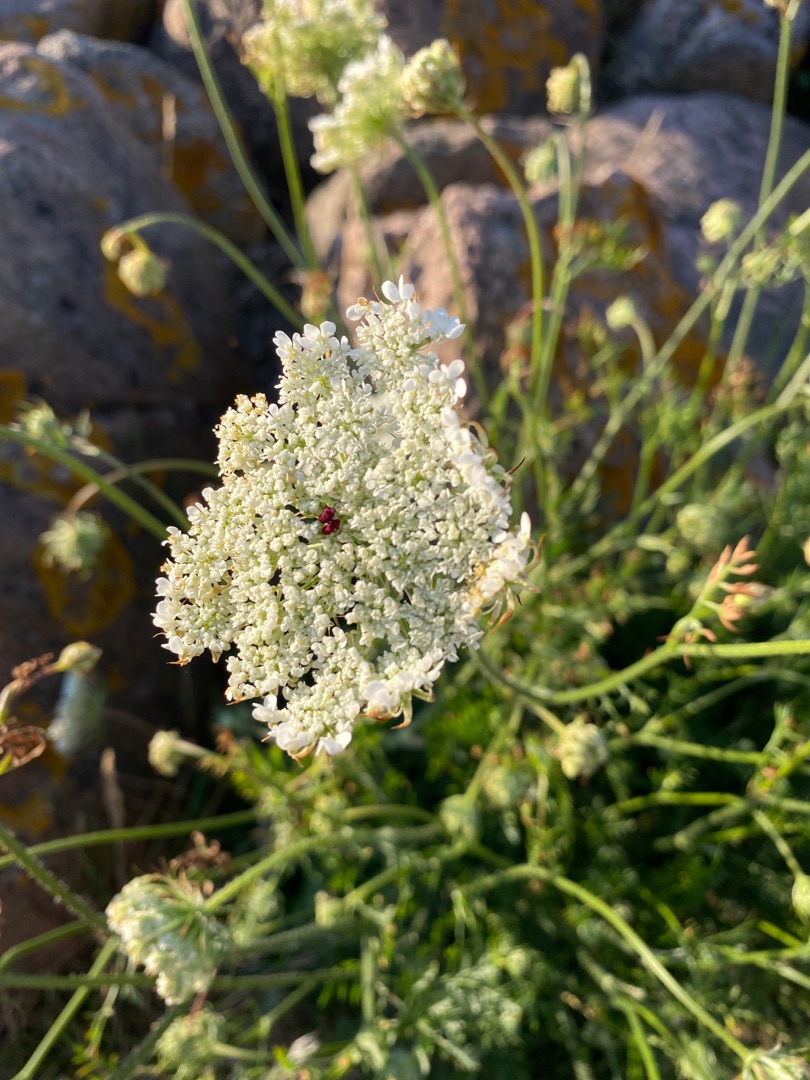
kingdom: Plantae
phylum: Tracheophyta
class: Magnoliopsida
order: Apiales
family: Apiaceae
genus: Daucus
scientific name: Daucus carota
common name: Gulerod
